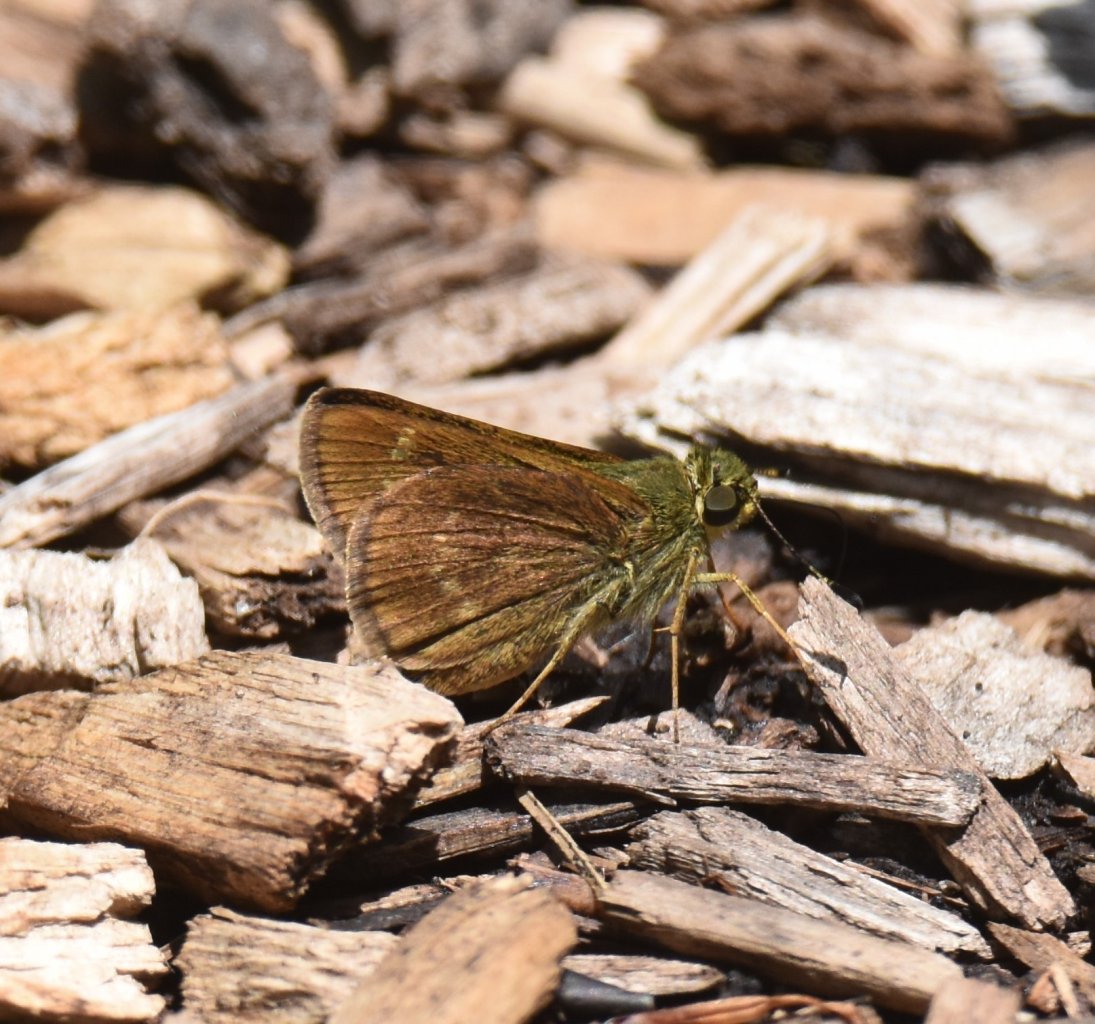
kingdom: Animalia
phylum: Arthropoda
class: Insecta
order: Lepidoptera
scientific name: Lepidoptera
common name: Butterflies
